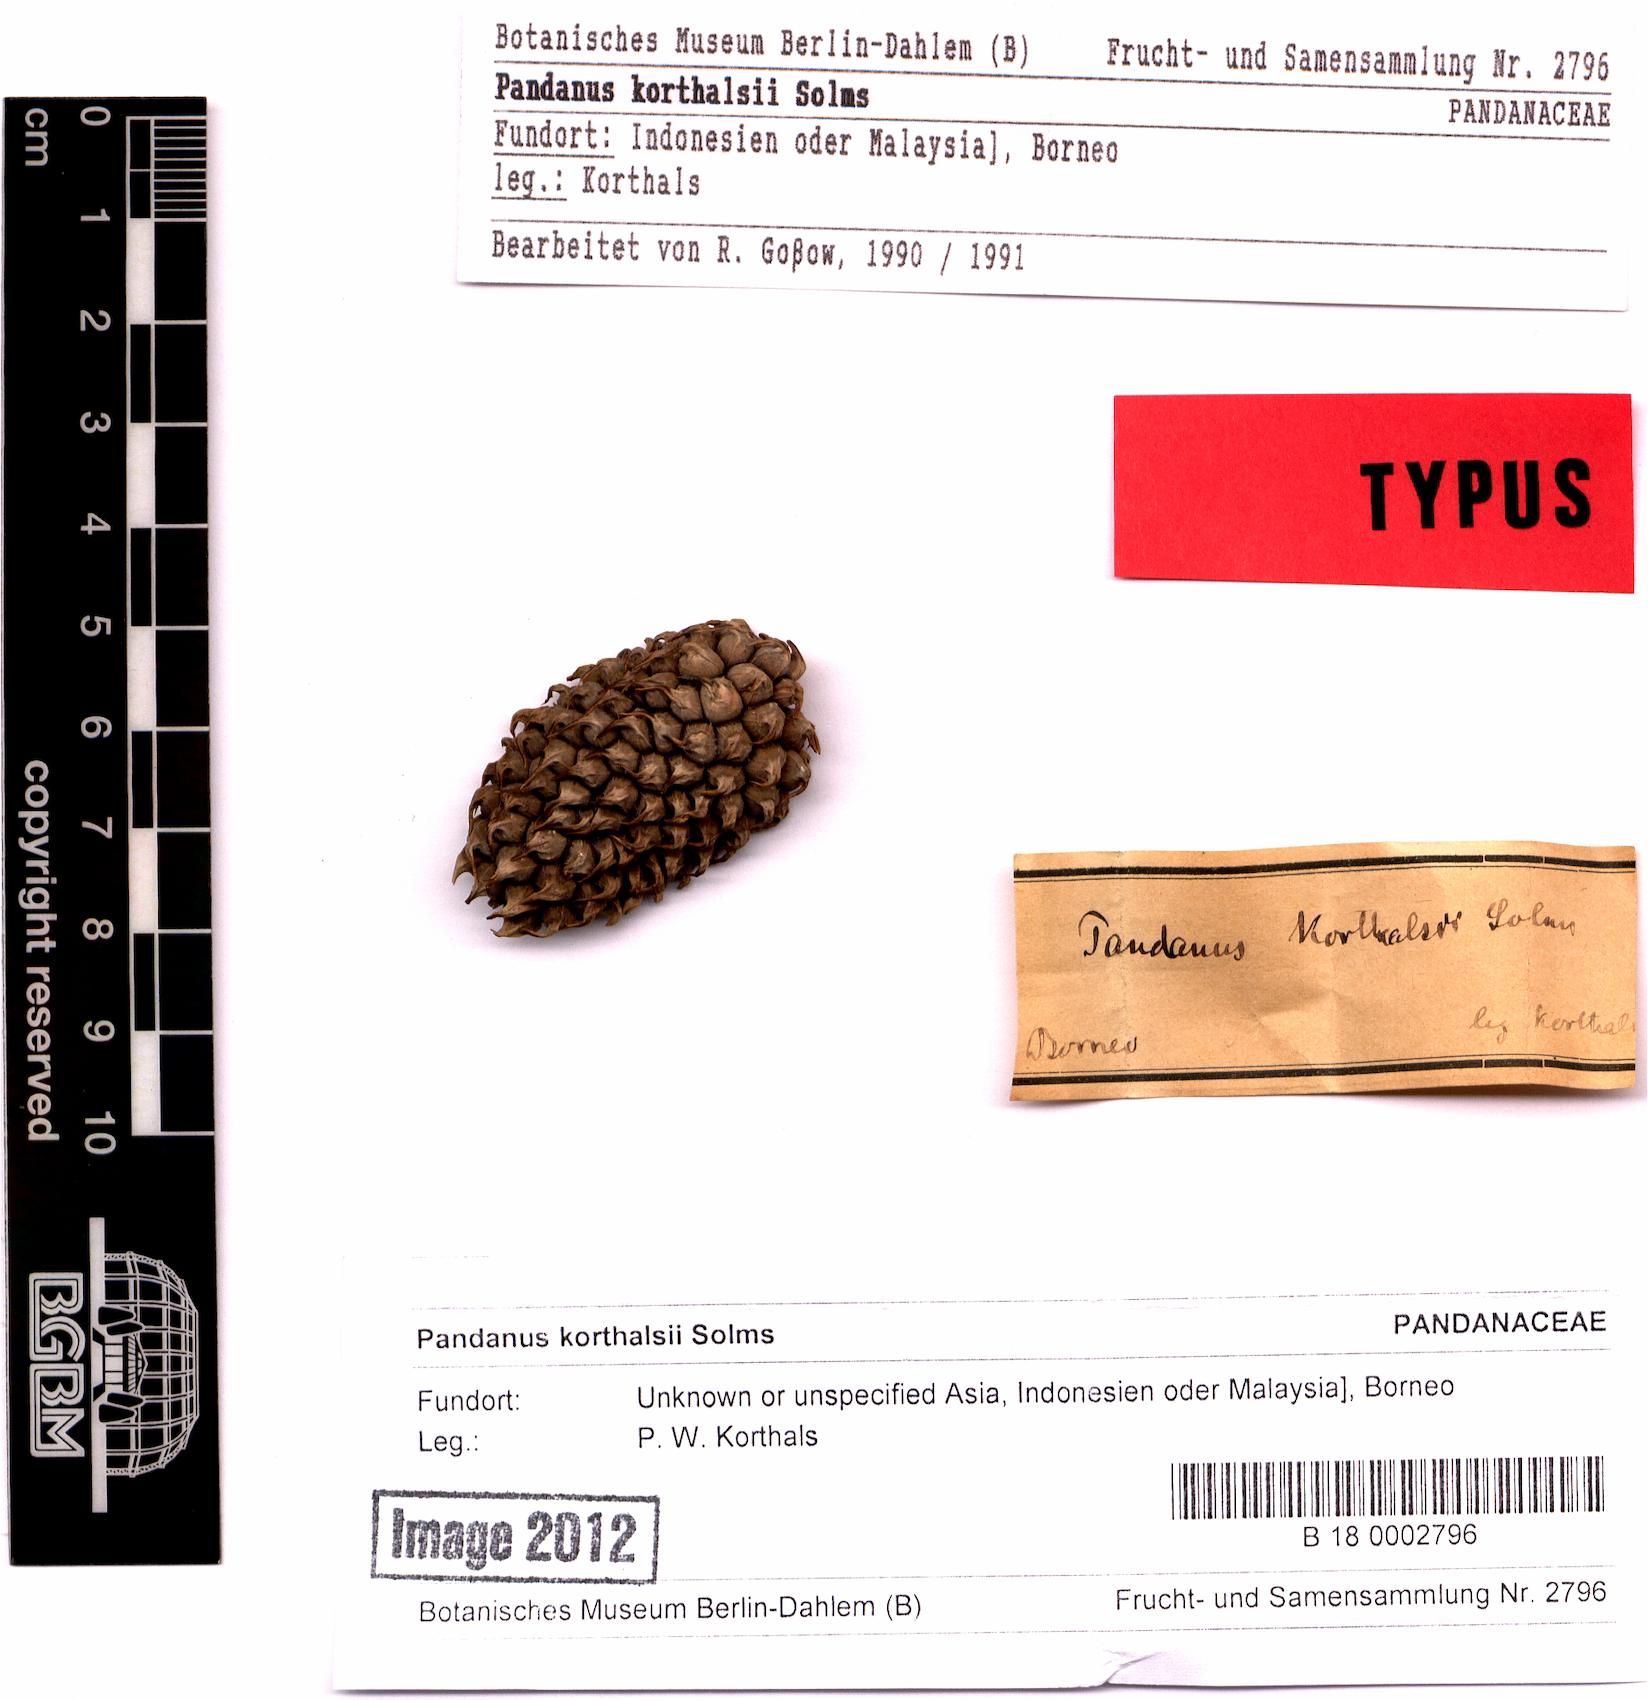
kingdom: Plantae
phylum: Tracheophyta
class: Liliopsida
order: Pandanales
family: Pandanaceae
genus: Benstonea
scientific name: Benstonea korthalsii
